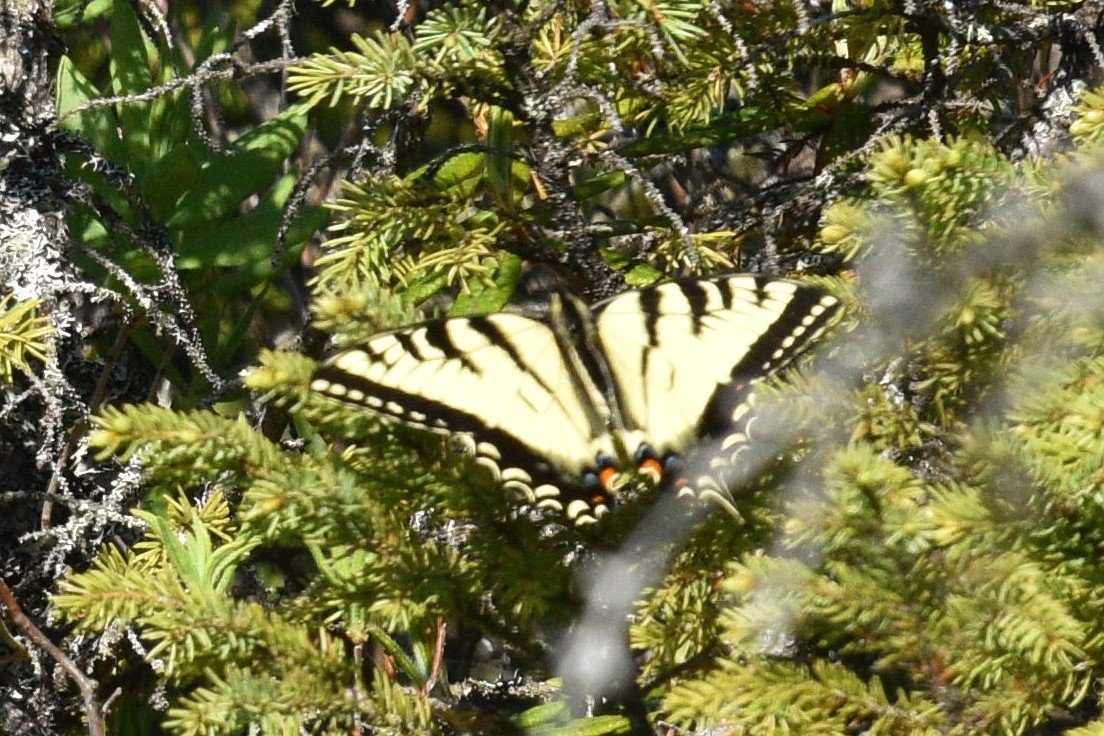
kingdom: Animalia
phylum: Arthropoda
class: Insecta
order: Lepidoptera
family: Papilionidae
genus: Pterourus
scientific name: Pterourus canadensis
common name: Canadian Tiger Swallowtail
